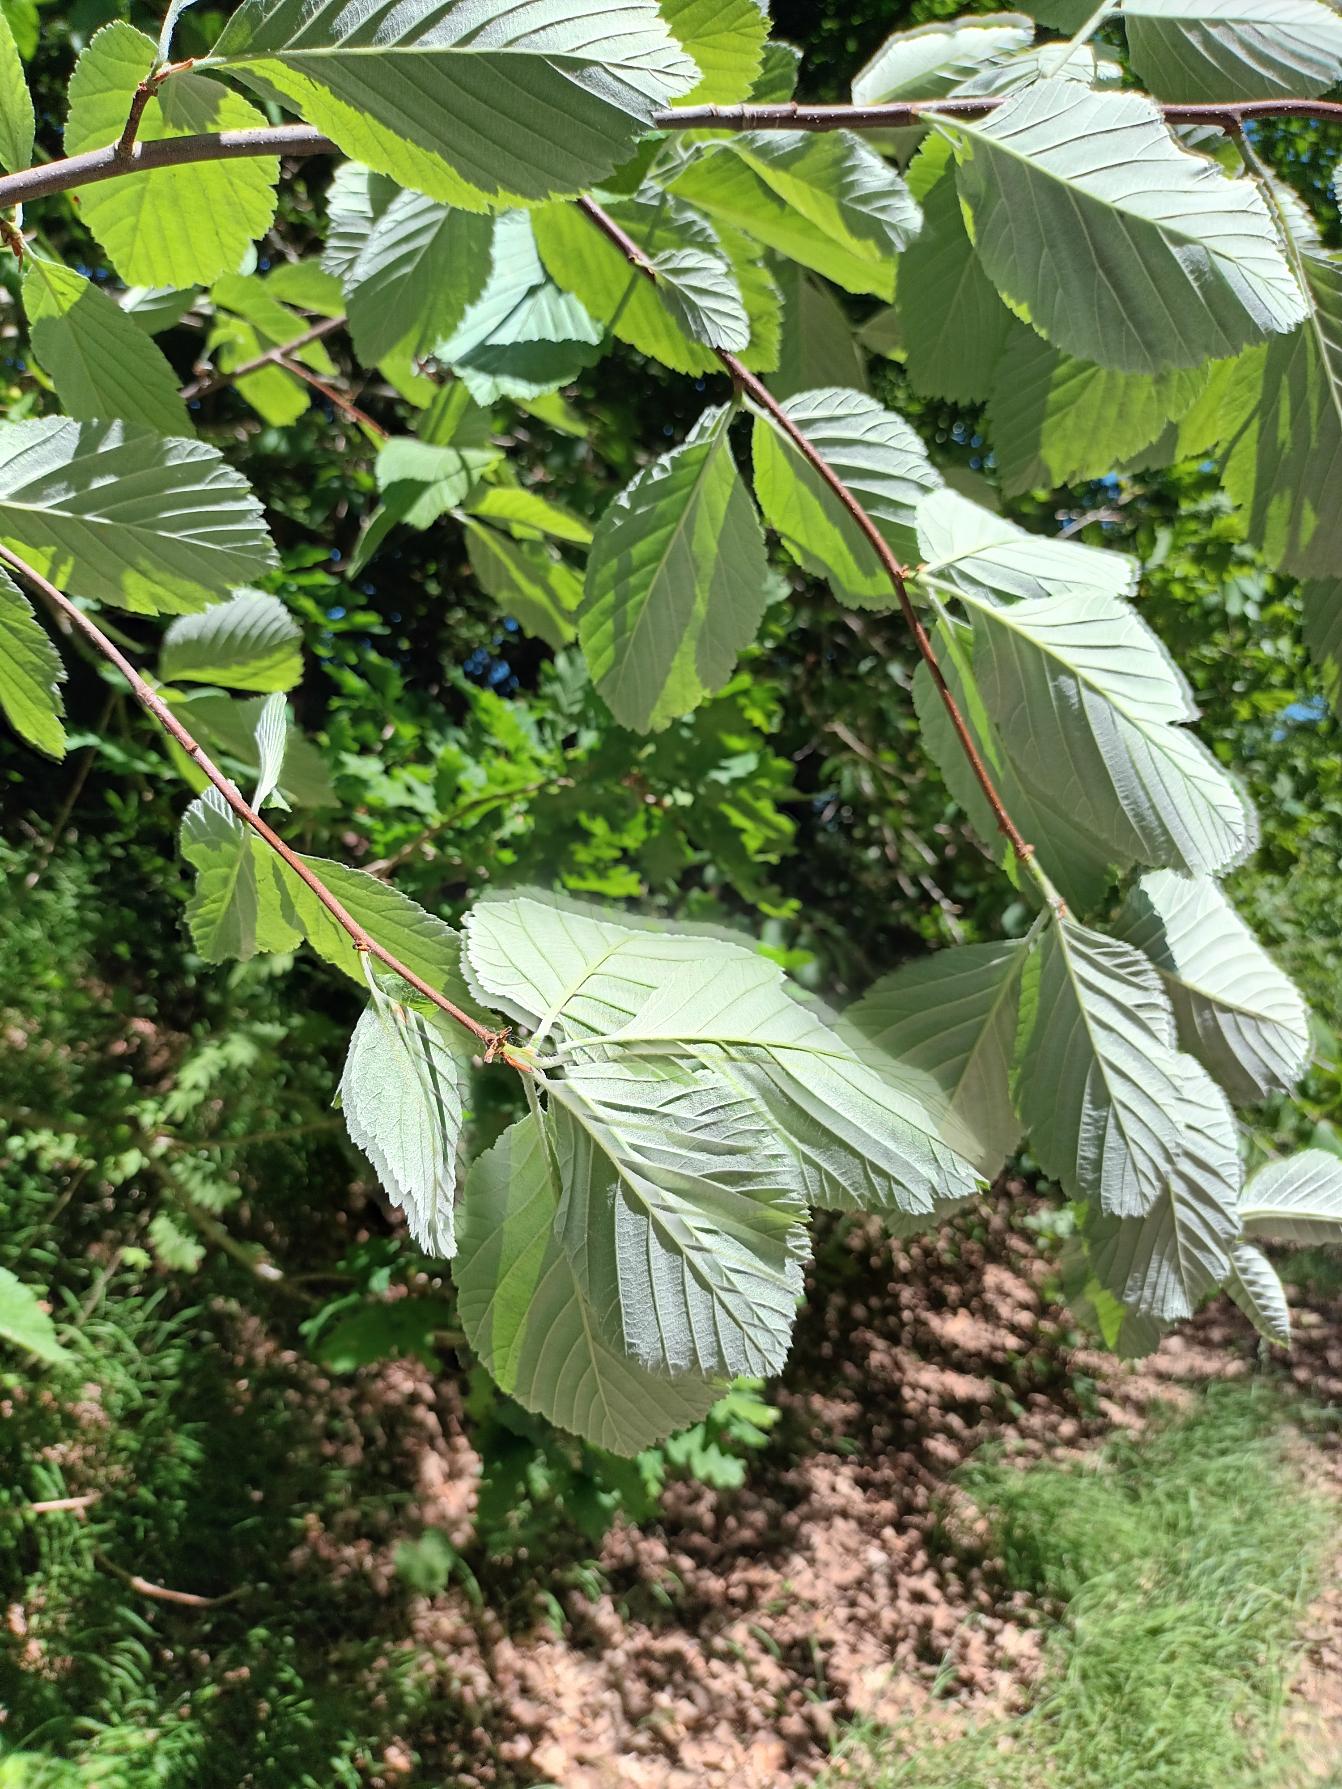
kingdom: Plantae
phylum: Tracheophyta
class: Magnoliopsida
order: Rosales
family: Rosaceae
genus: Aria
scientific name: Aria edulis
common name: Aksel-røn
